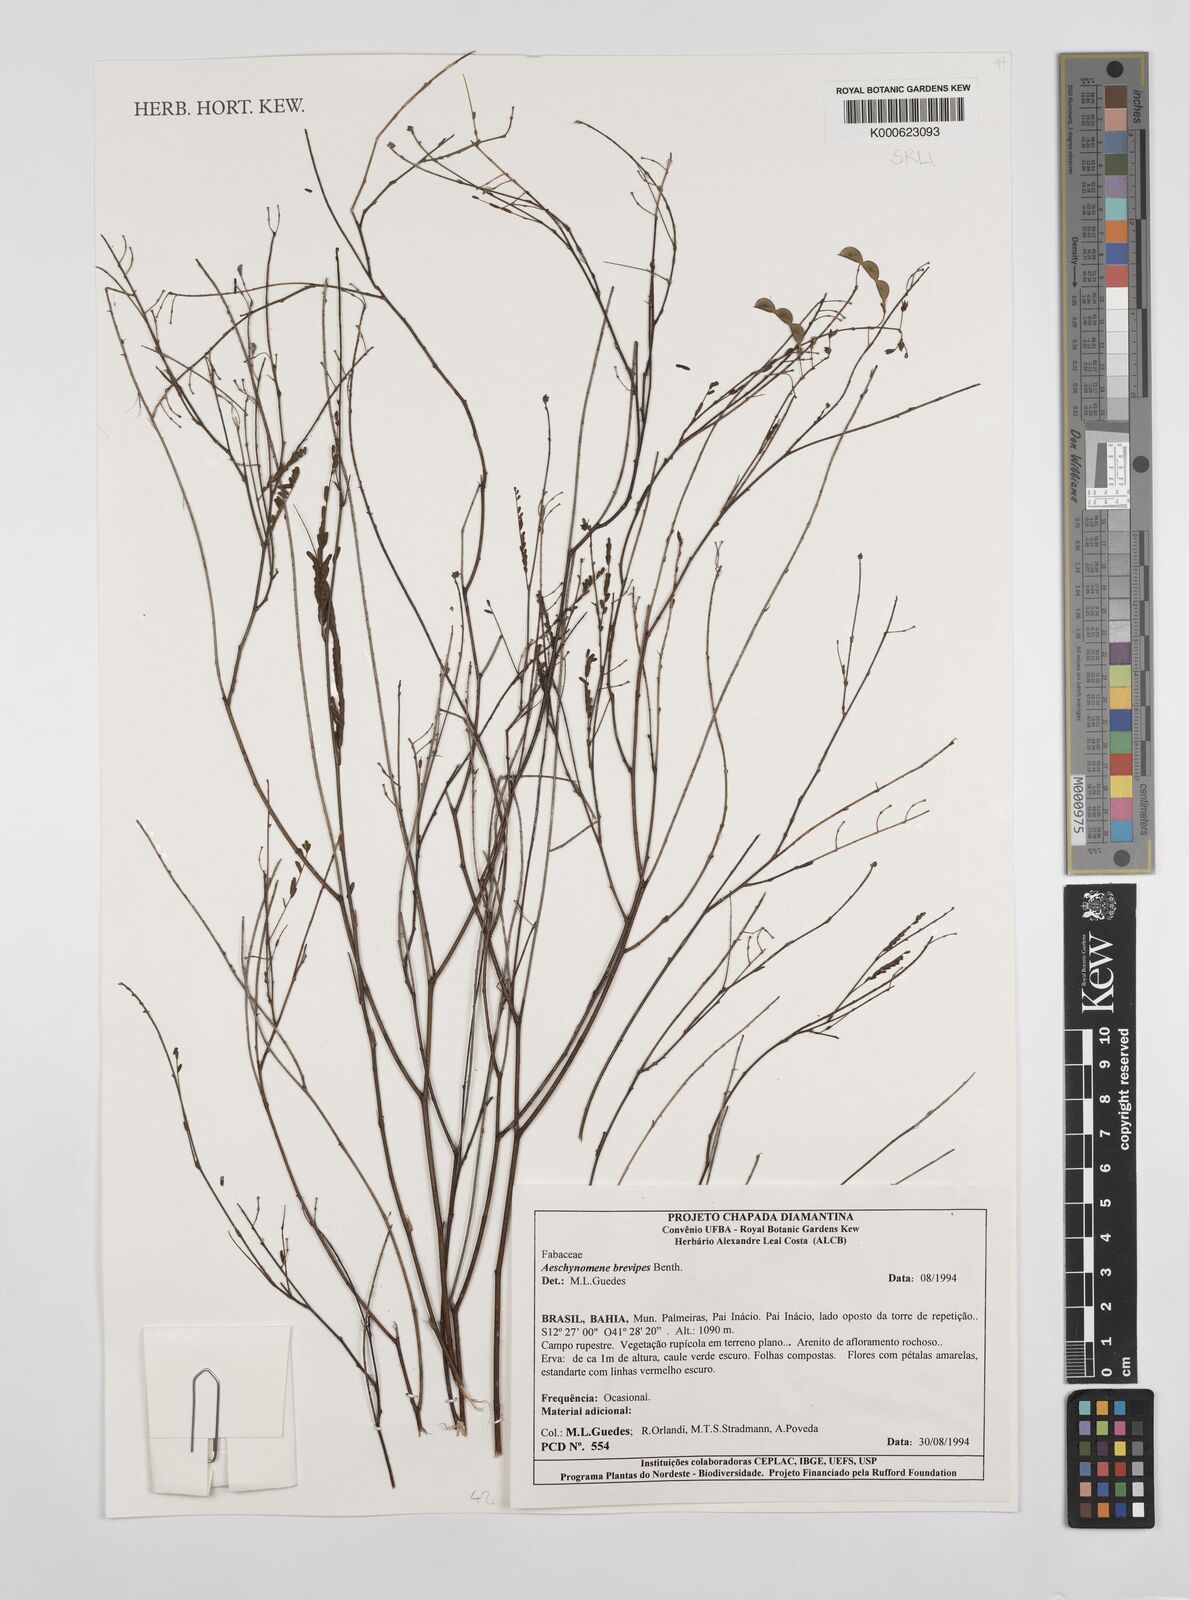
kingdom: Plantae
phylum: Tracheophyta
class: Magnoliopsida
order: Fabales
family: Fabaceae
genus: Ctenodon
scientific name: Ctenodon brevipes
